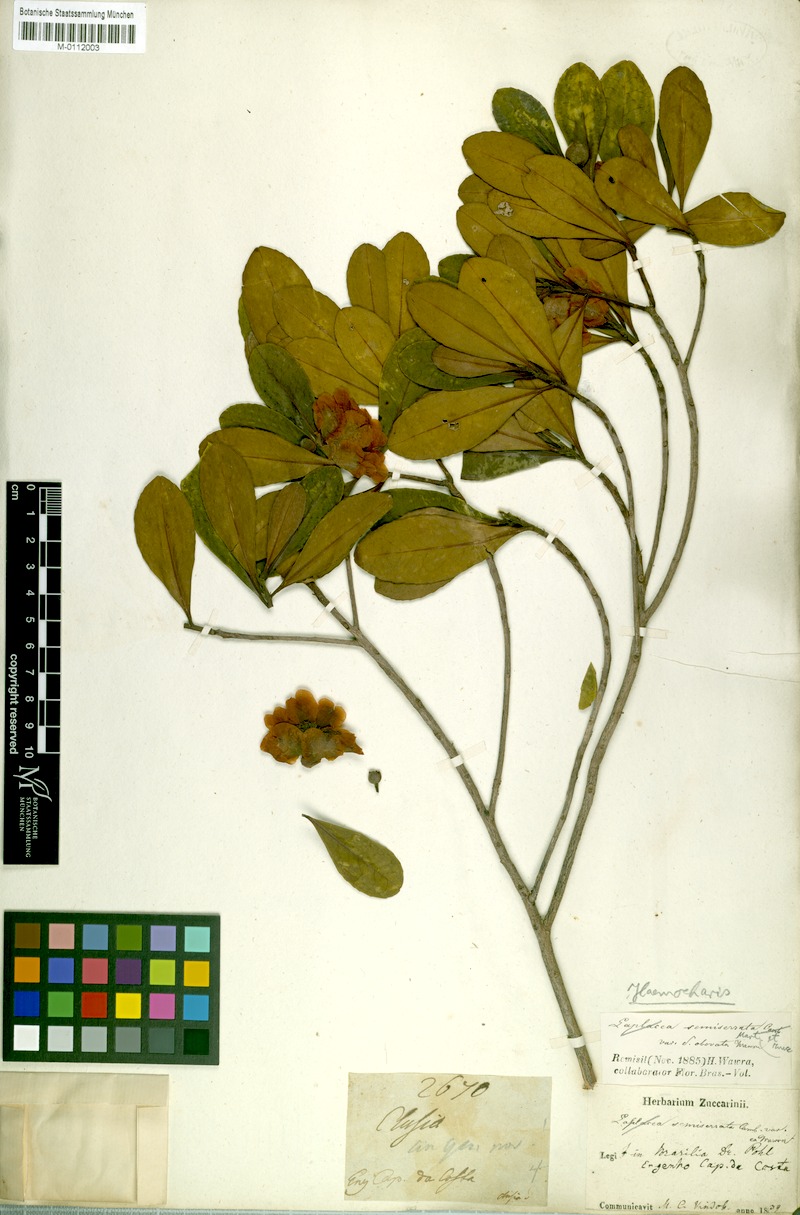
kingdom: Plantae
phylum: Tracheophyta
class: Magnoliopsida
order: Ericales
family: Theaceae
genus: Gordonia
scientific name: Gordonia acutifolia
